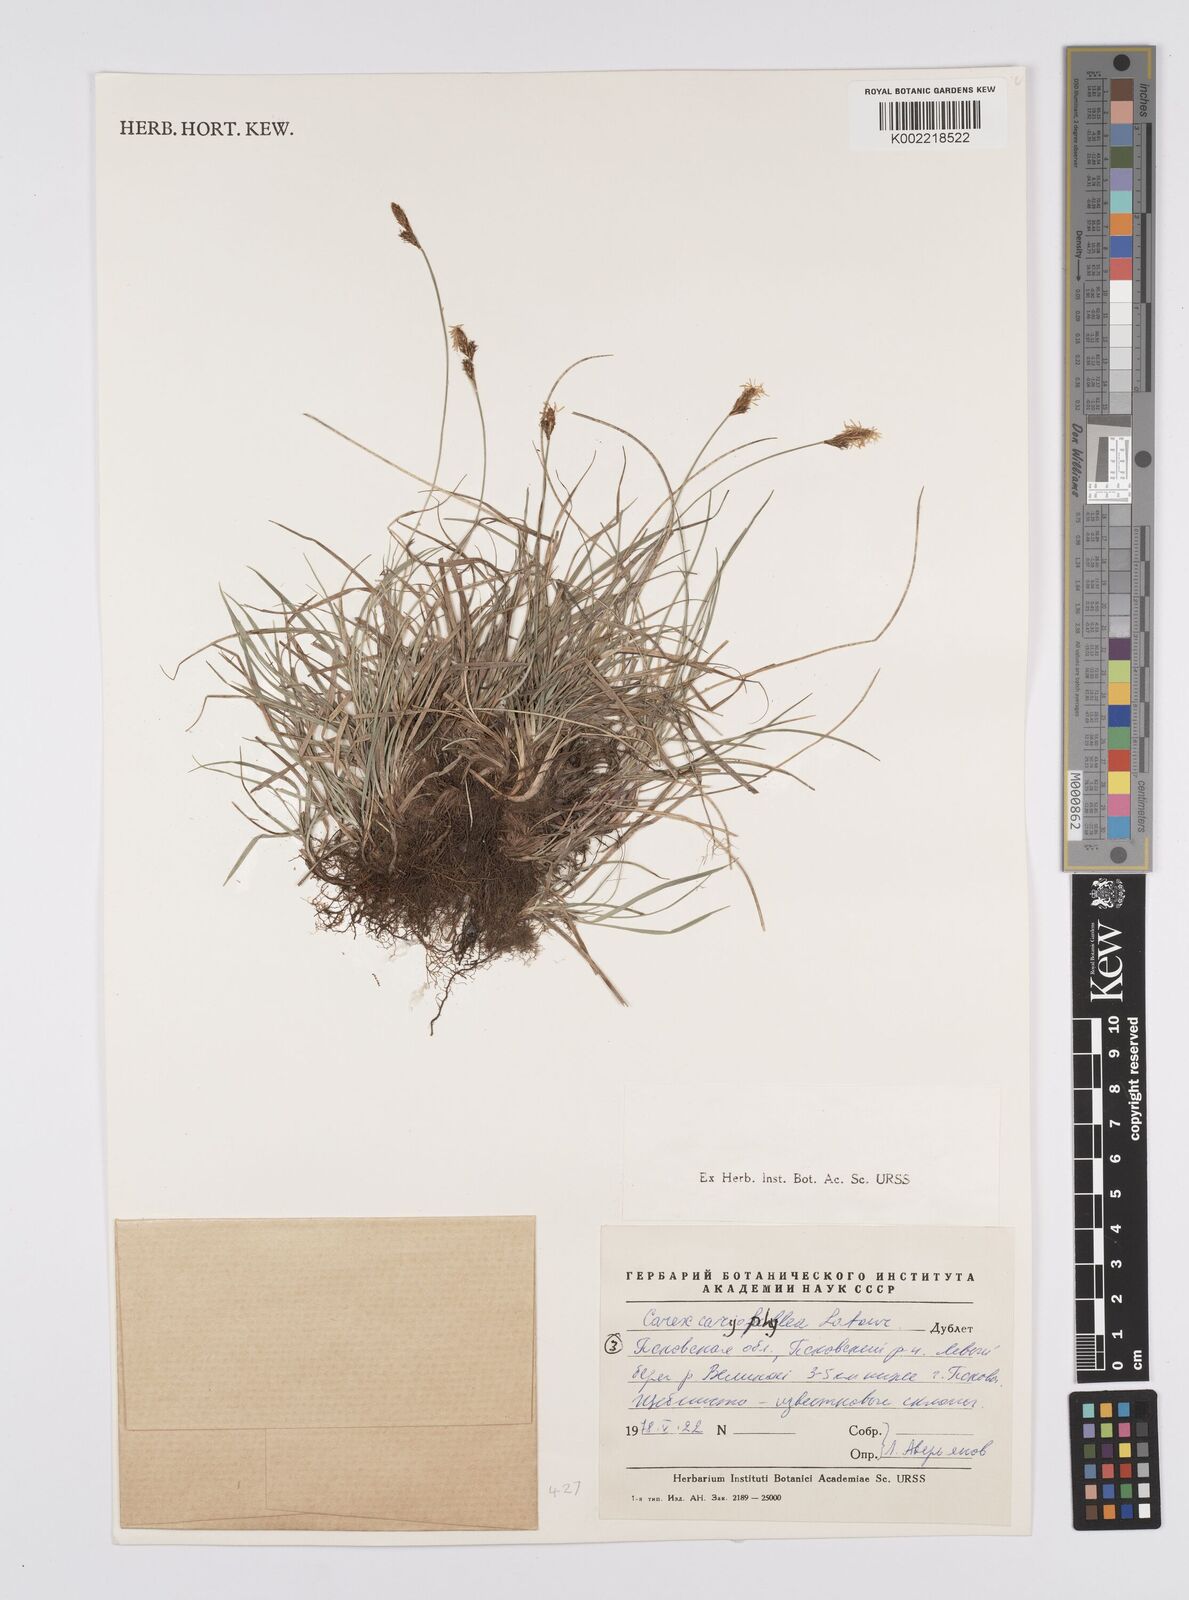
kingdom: Plantae
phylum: Tracheophyta
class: Liliopsida
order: Poales
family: Cyperaceae
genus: Carex
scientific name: Carex caryophyllea
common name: Spring sedge
